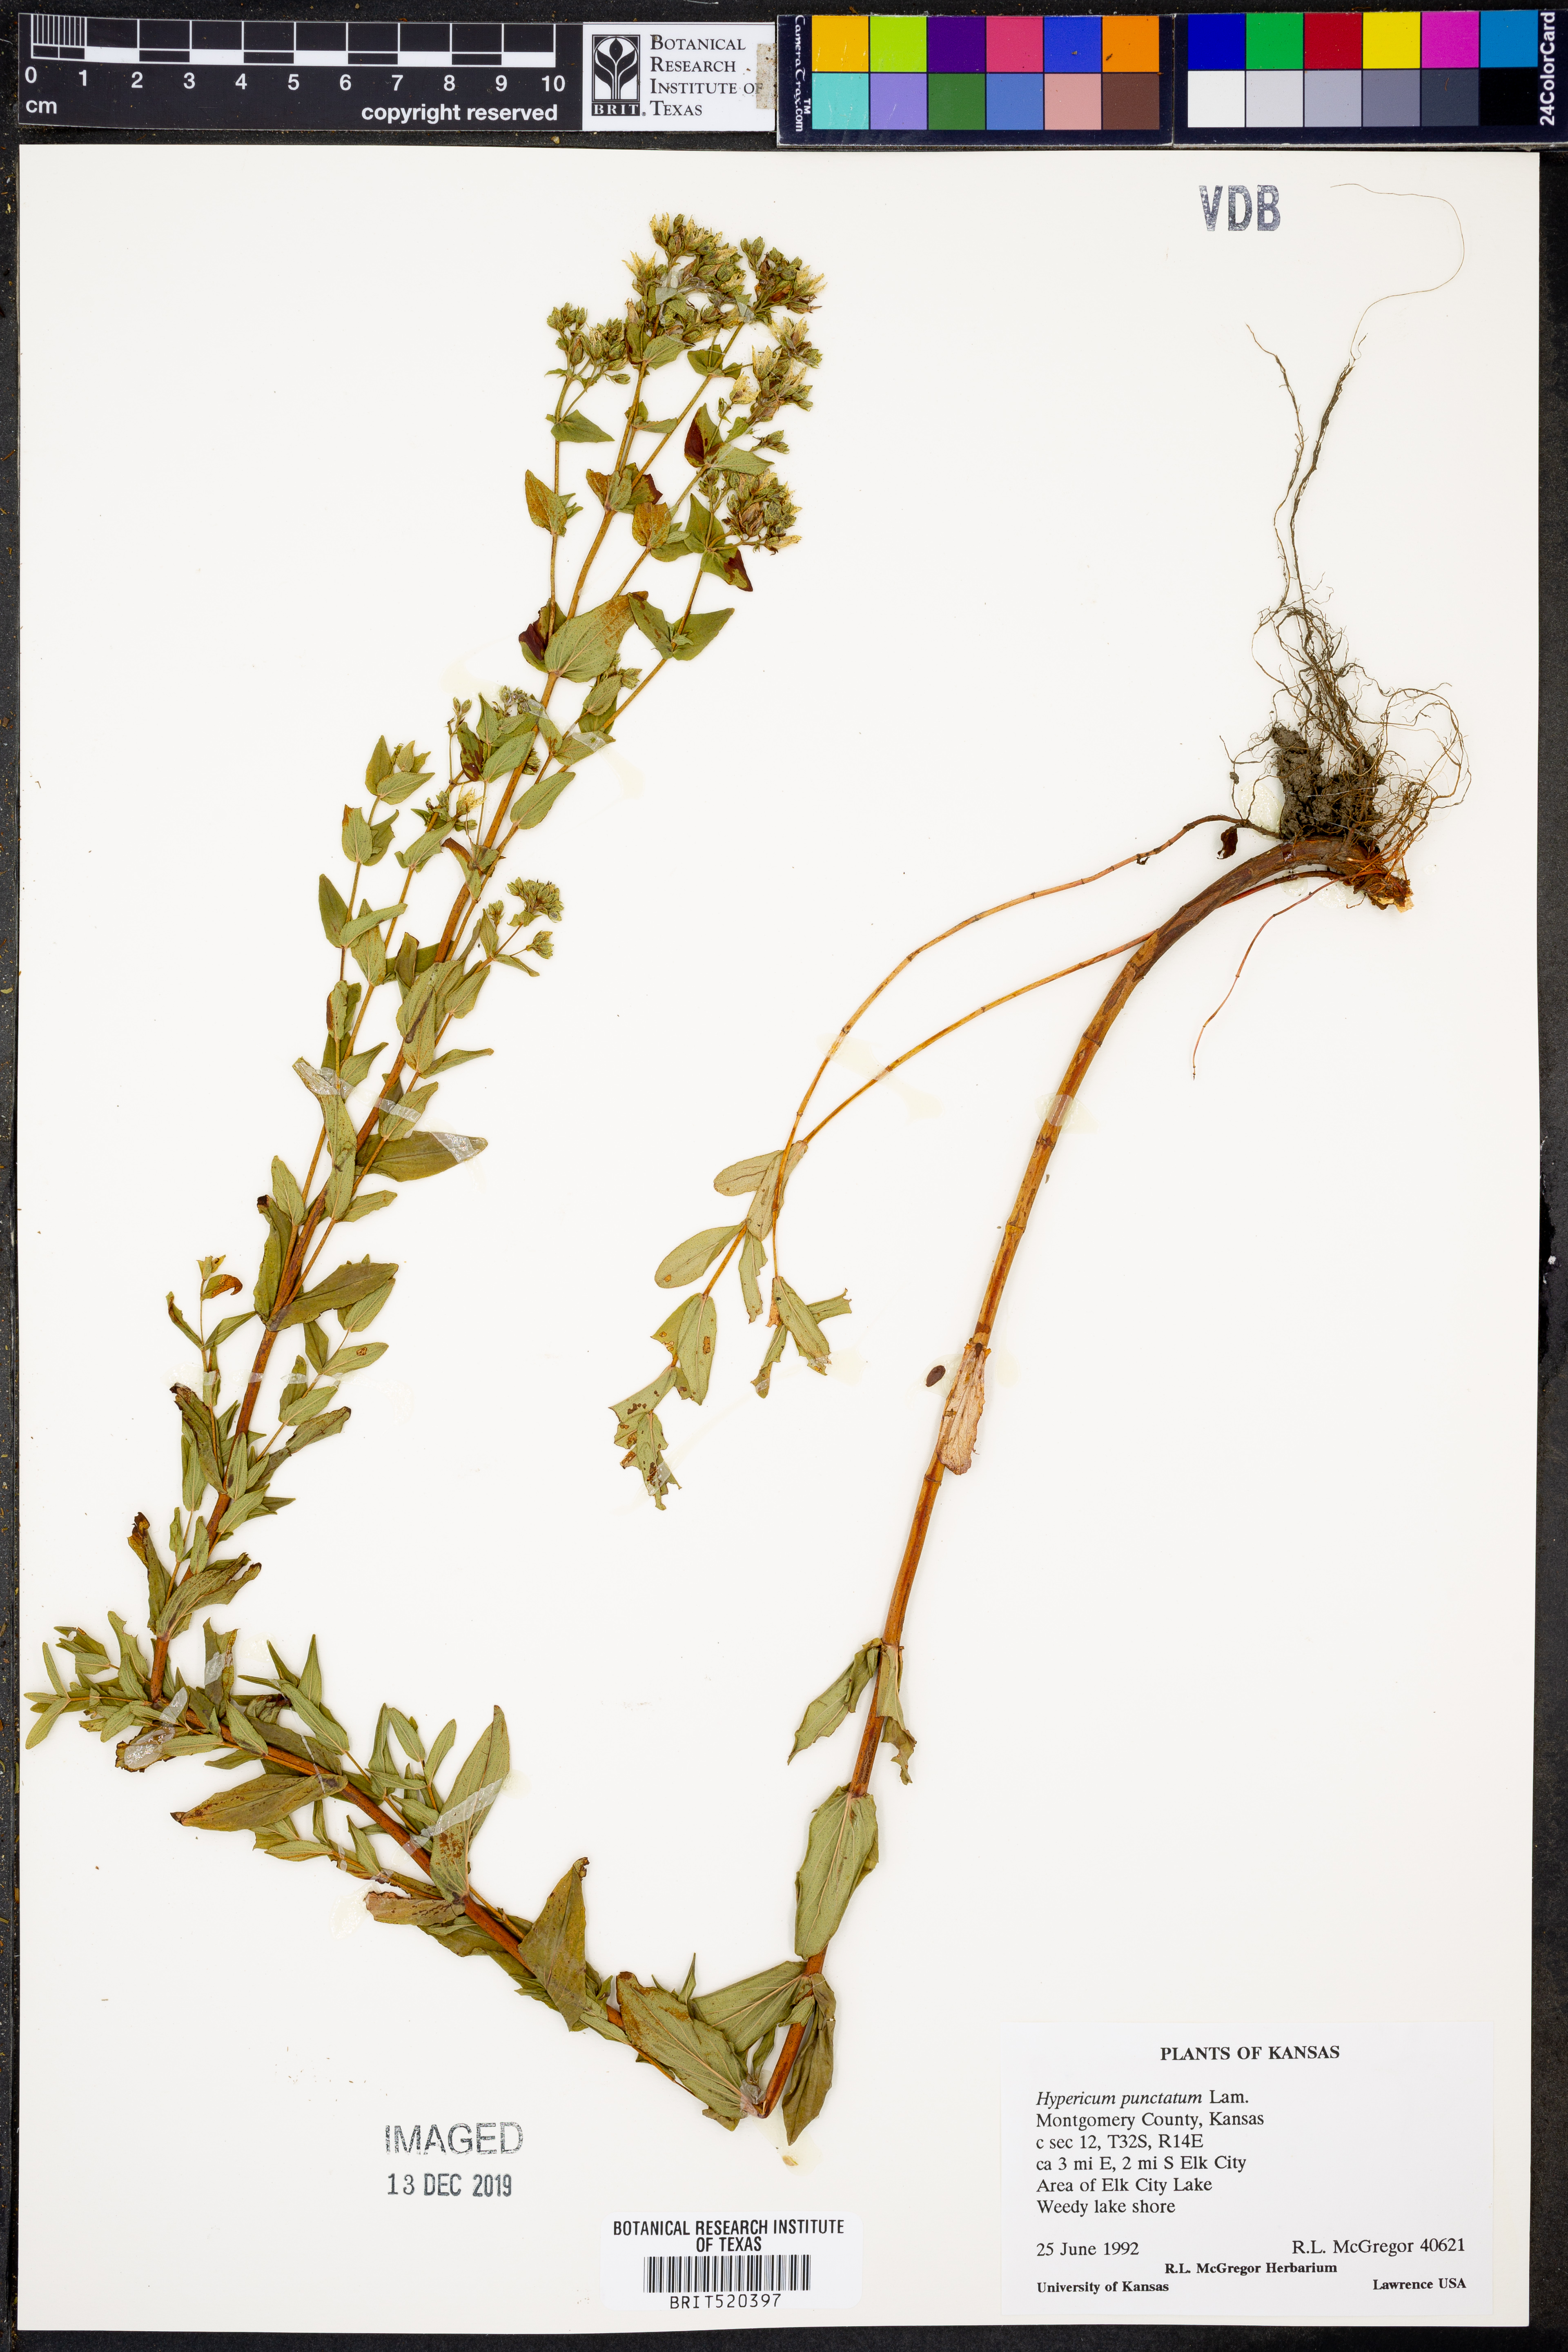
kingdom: Plantae
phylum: Tracheophyta
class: Magnoliopsida
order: Malpighiales
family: Hypericaceae
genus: Hypericum
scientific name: Hypericum punctatum
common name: Spotted st. john's-wort
